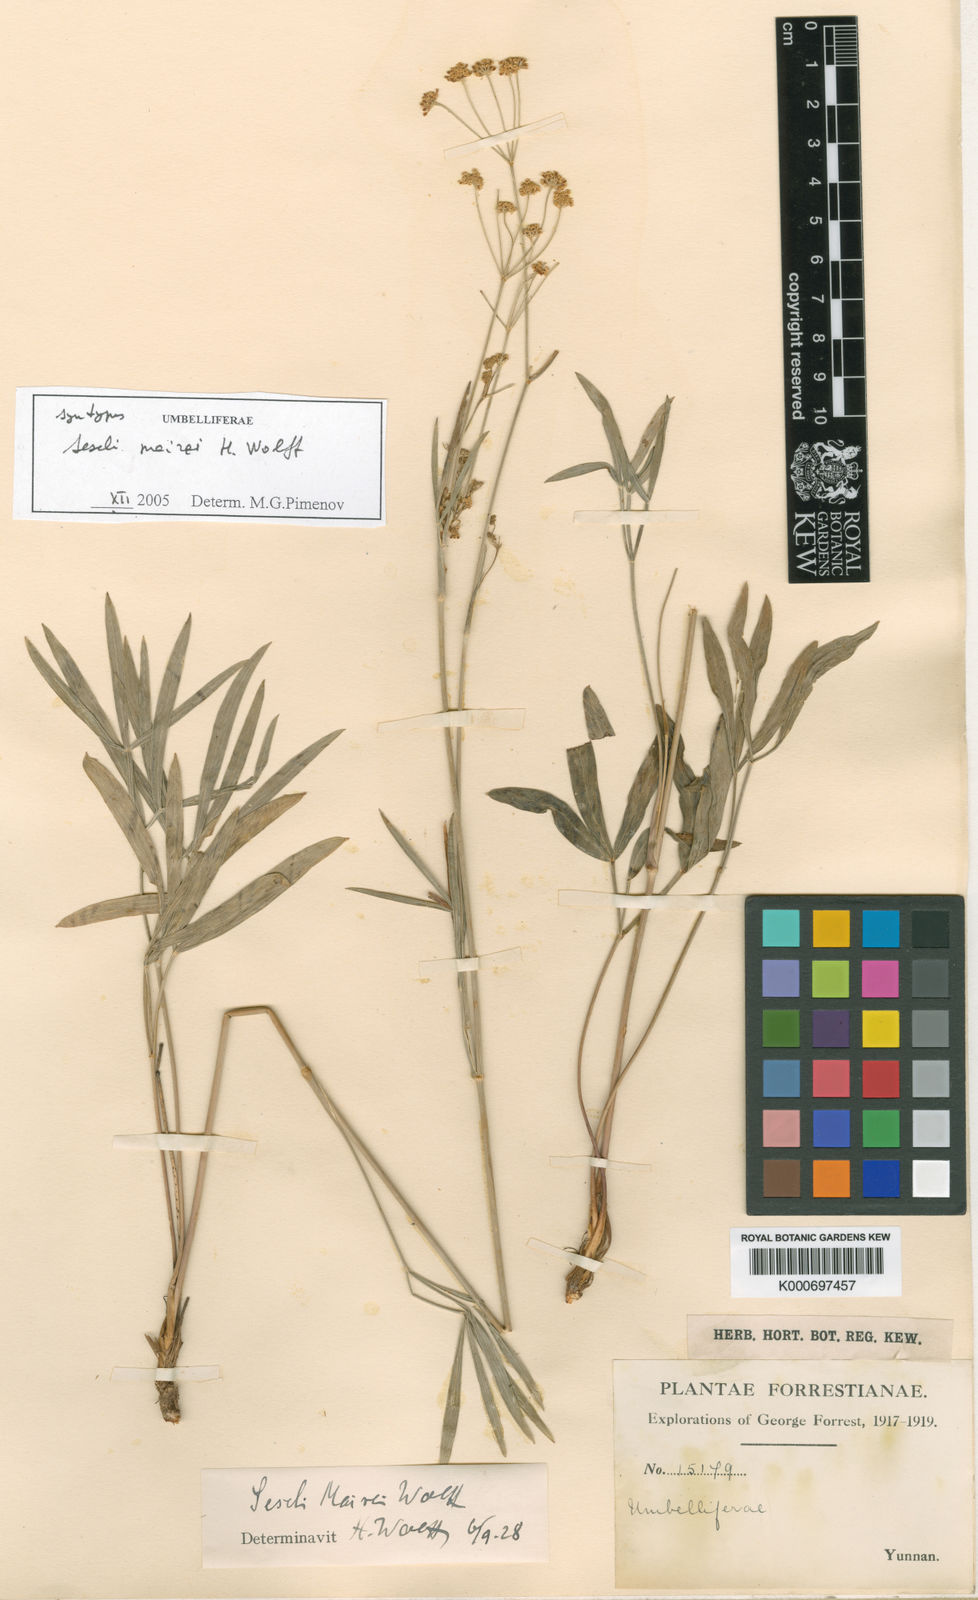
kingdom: Plantae
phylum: Tracheophyta
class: Magnoliopsida
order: Apiales
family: Apiaceae
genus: Seseli
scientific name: Seseli yunnanense
